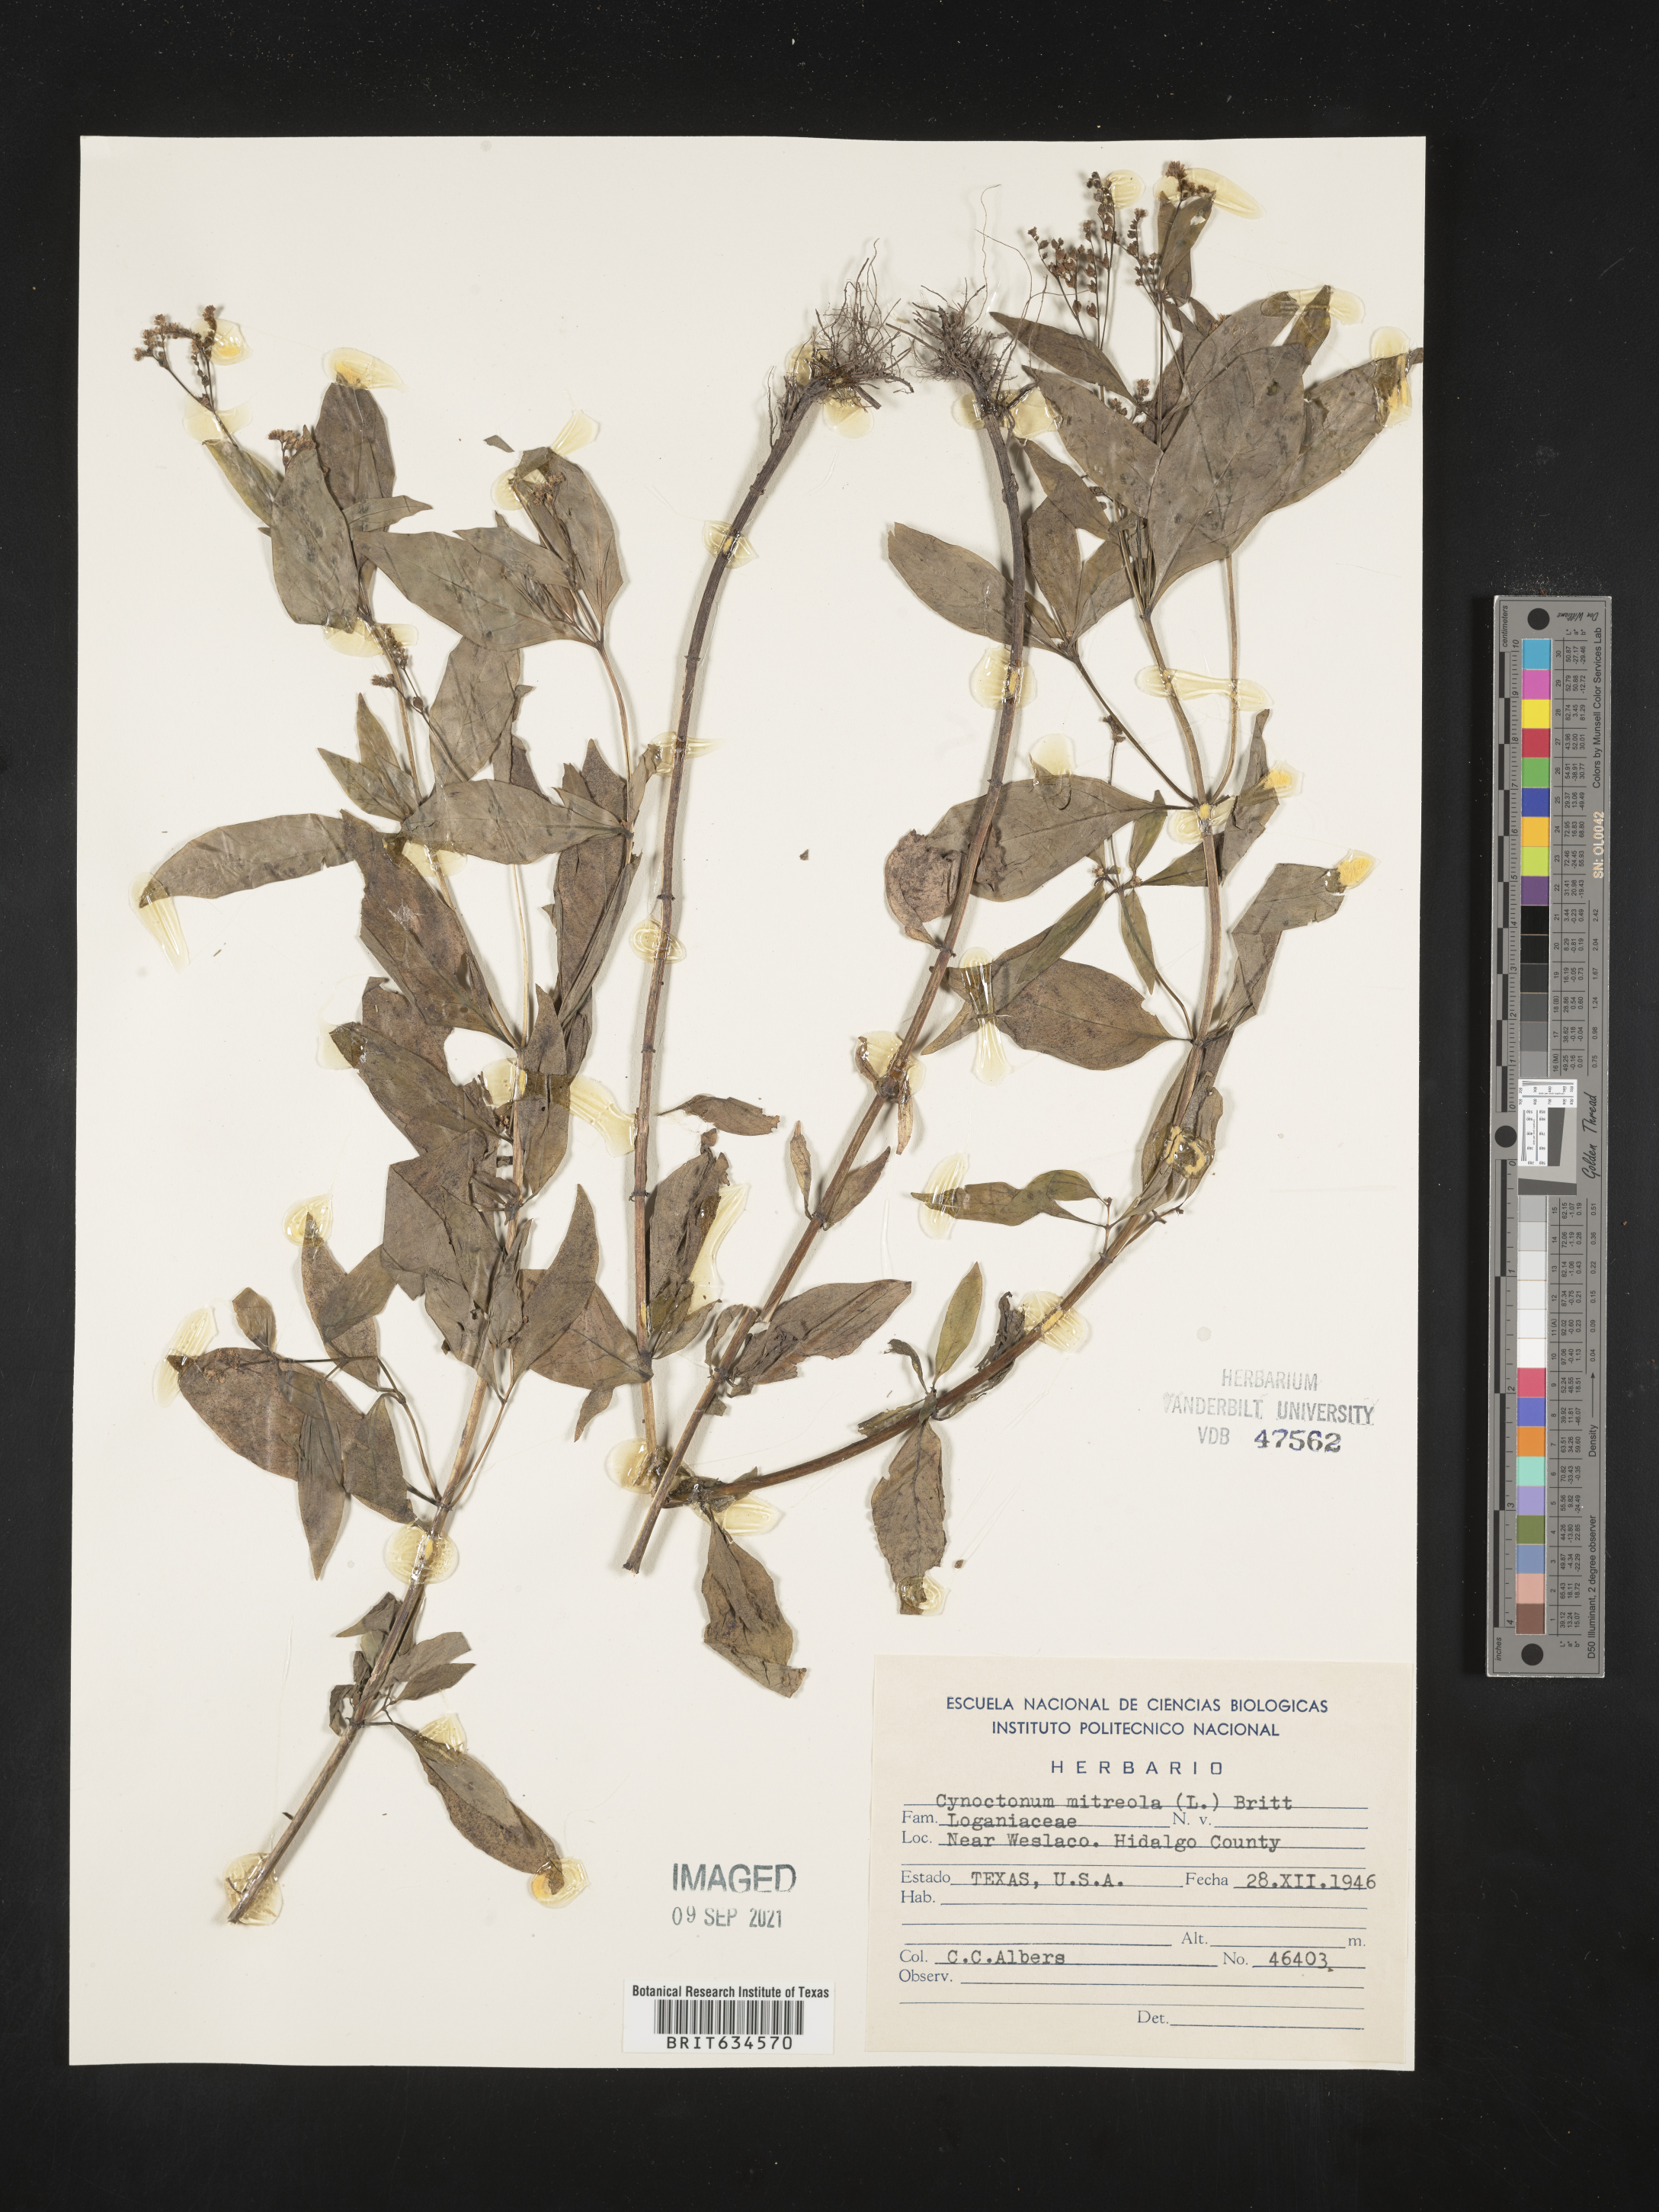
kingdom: Plantae
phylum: Tracheophyta
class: Magnoliopsida
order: Gentianales
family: Loganiaceae
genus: Mitreola
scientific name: Mitreola
